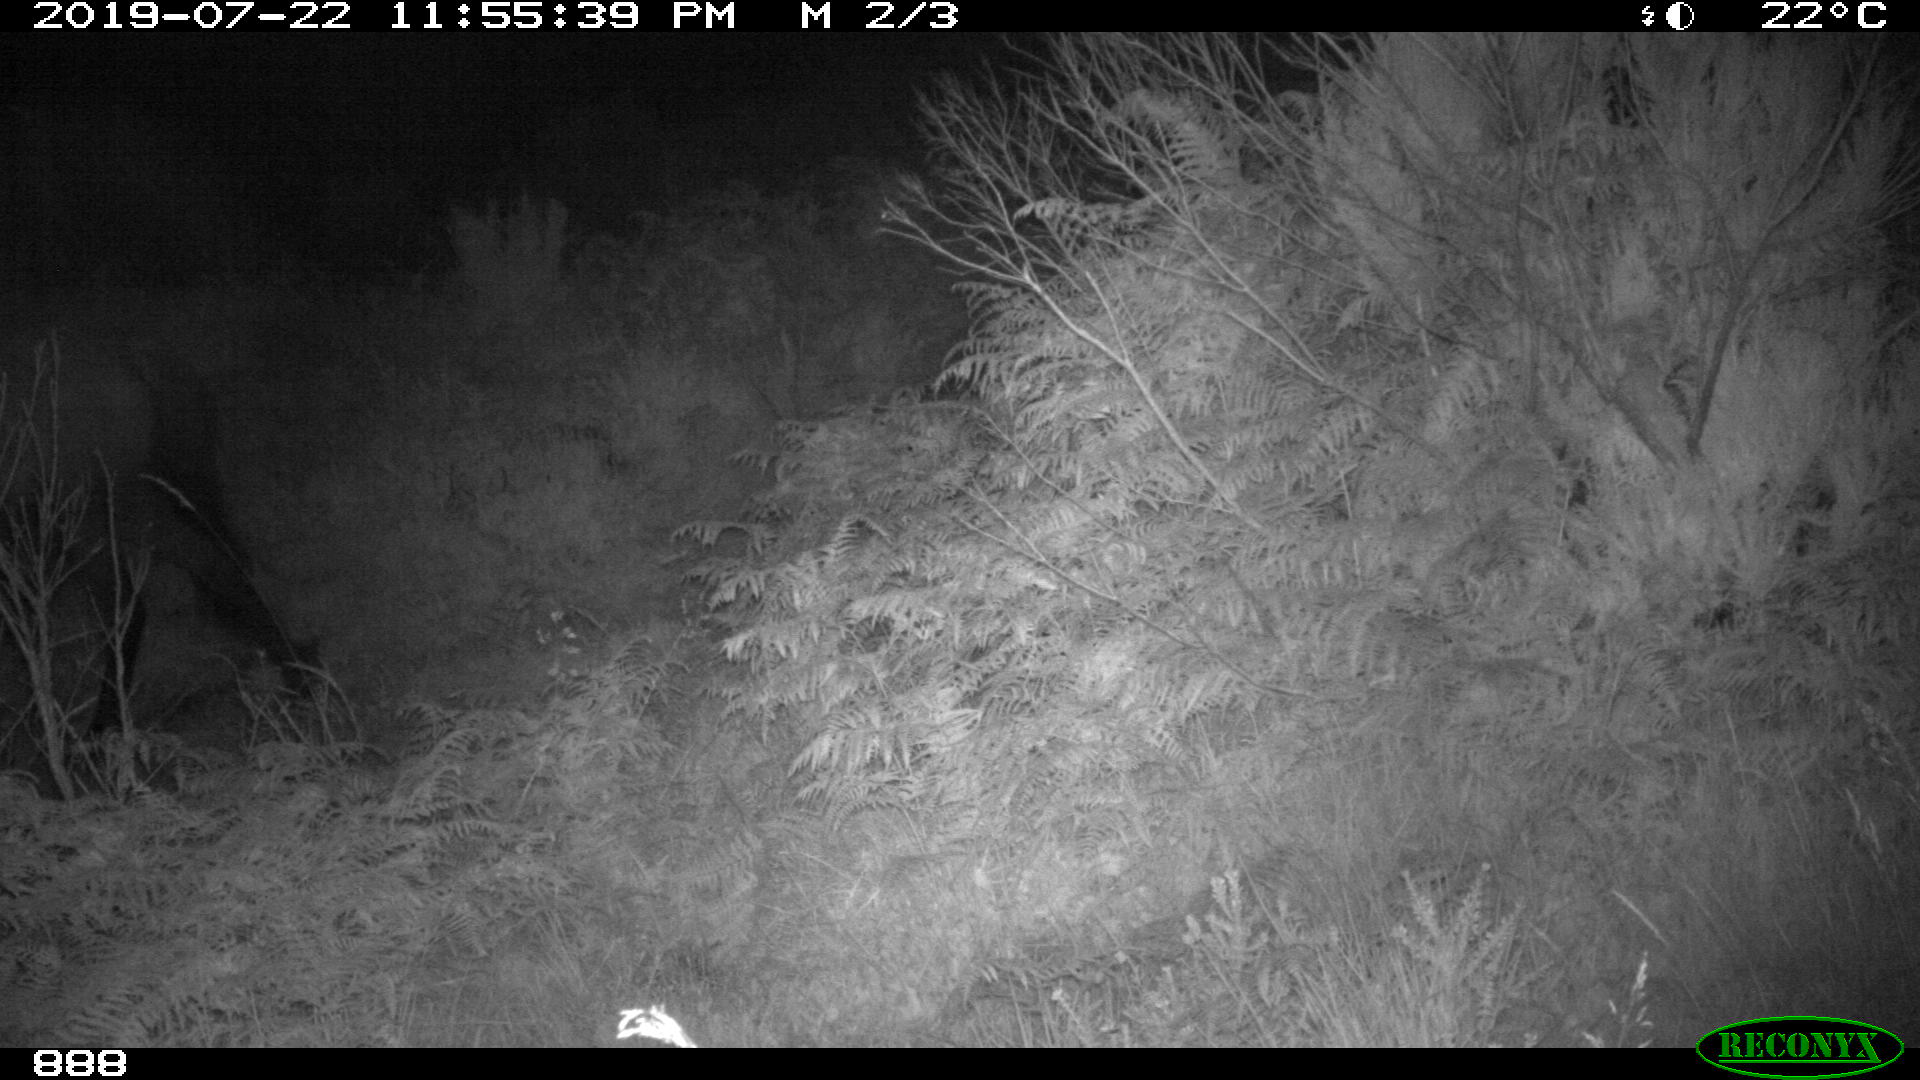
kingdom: Animalia
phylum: Chordata
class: Mammalia
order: Perissodactyla
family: Equidae
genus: Equus
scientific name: Equus caballus
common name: Horse
